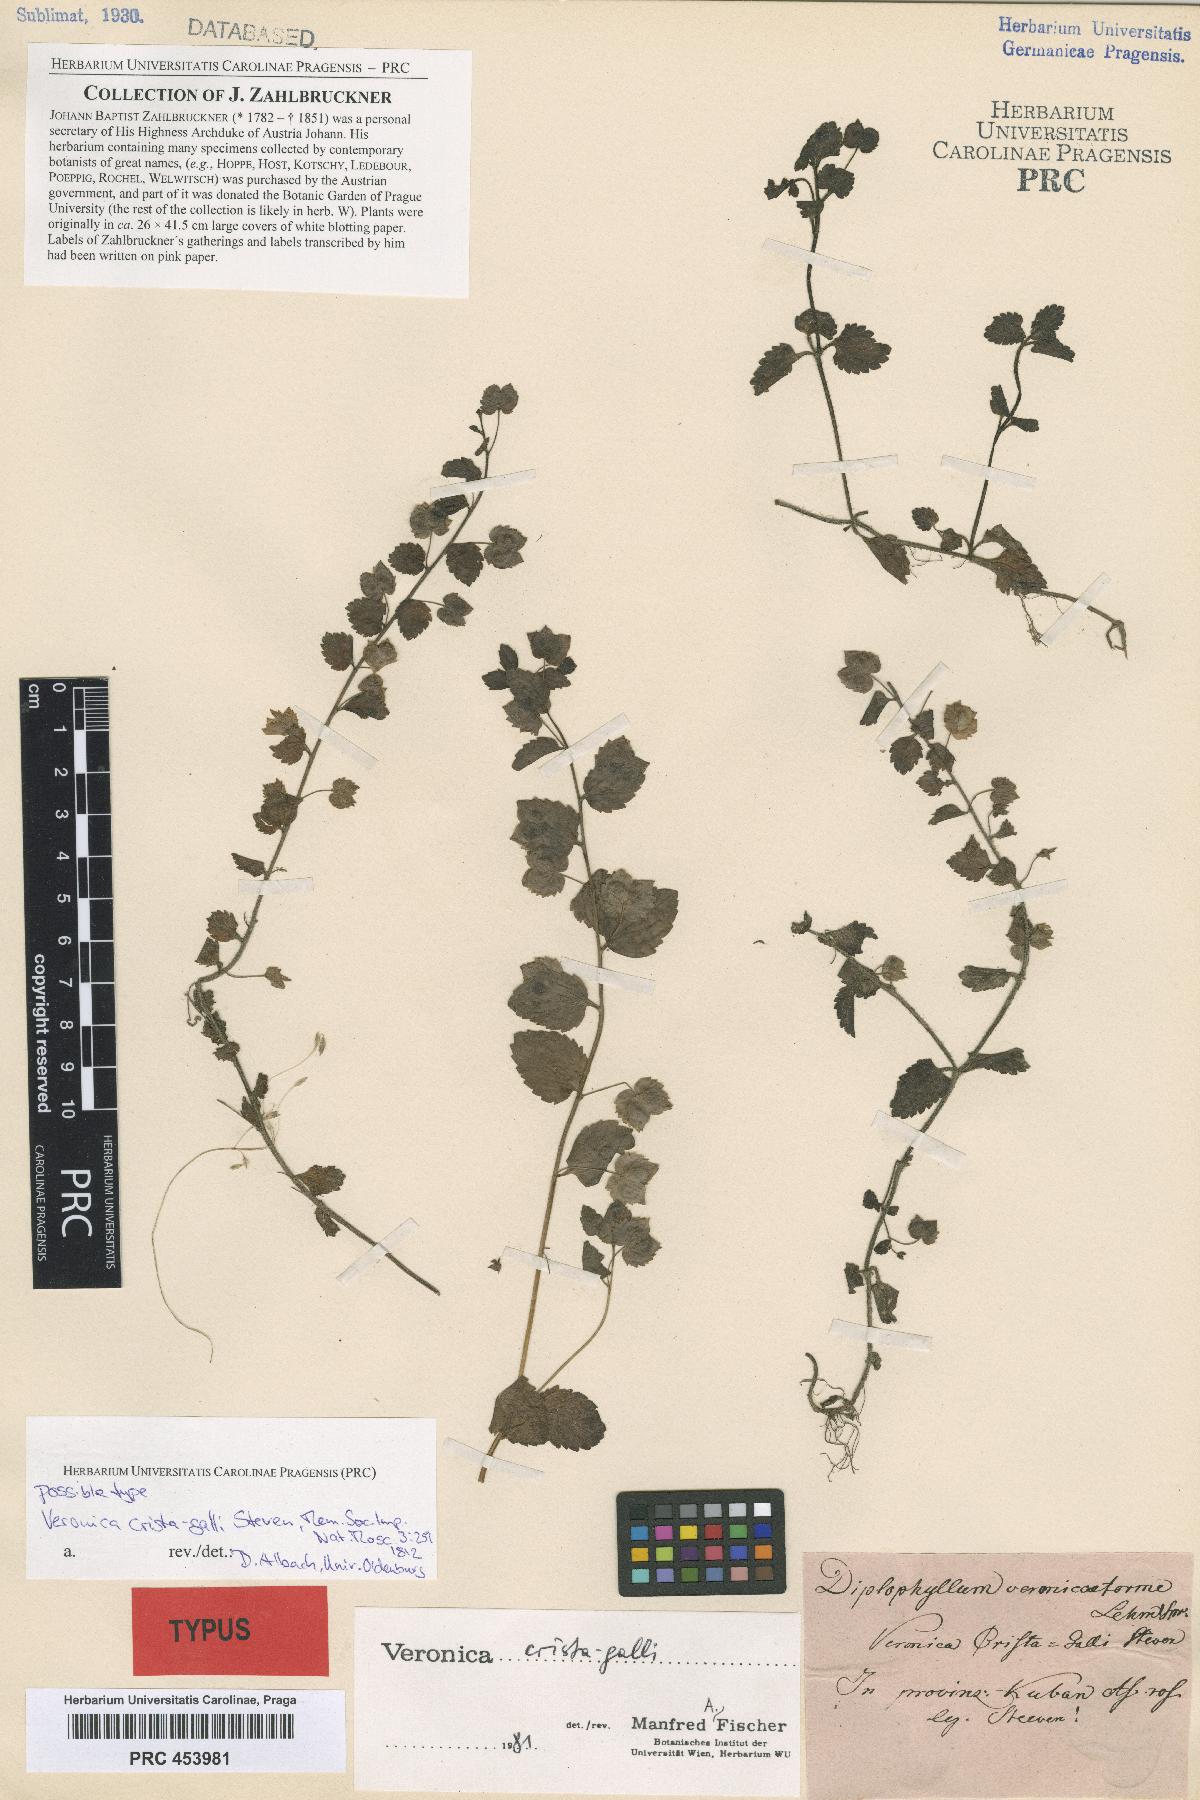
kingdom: Plantae
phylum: Tracheophyta
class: Magnoliopsida
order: Lamiales
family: Plantaginaceae
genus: Veronica
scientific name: Veronica crista-galli
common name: Crested field-speedwell
